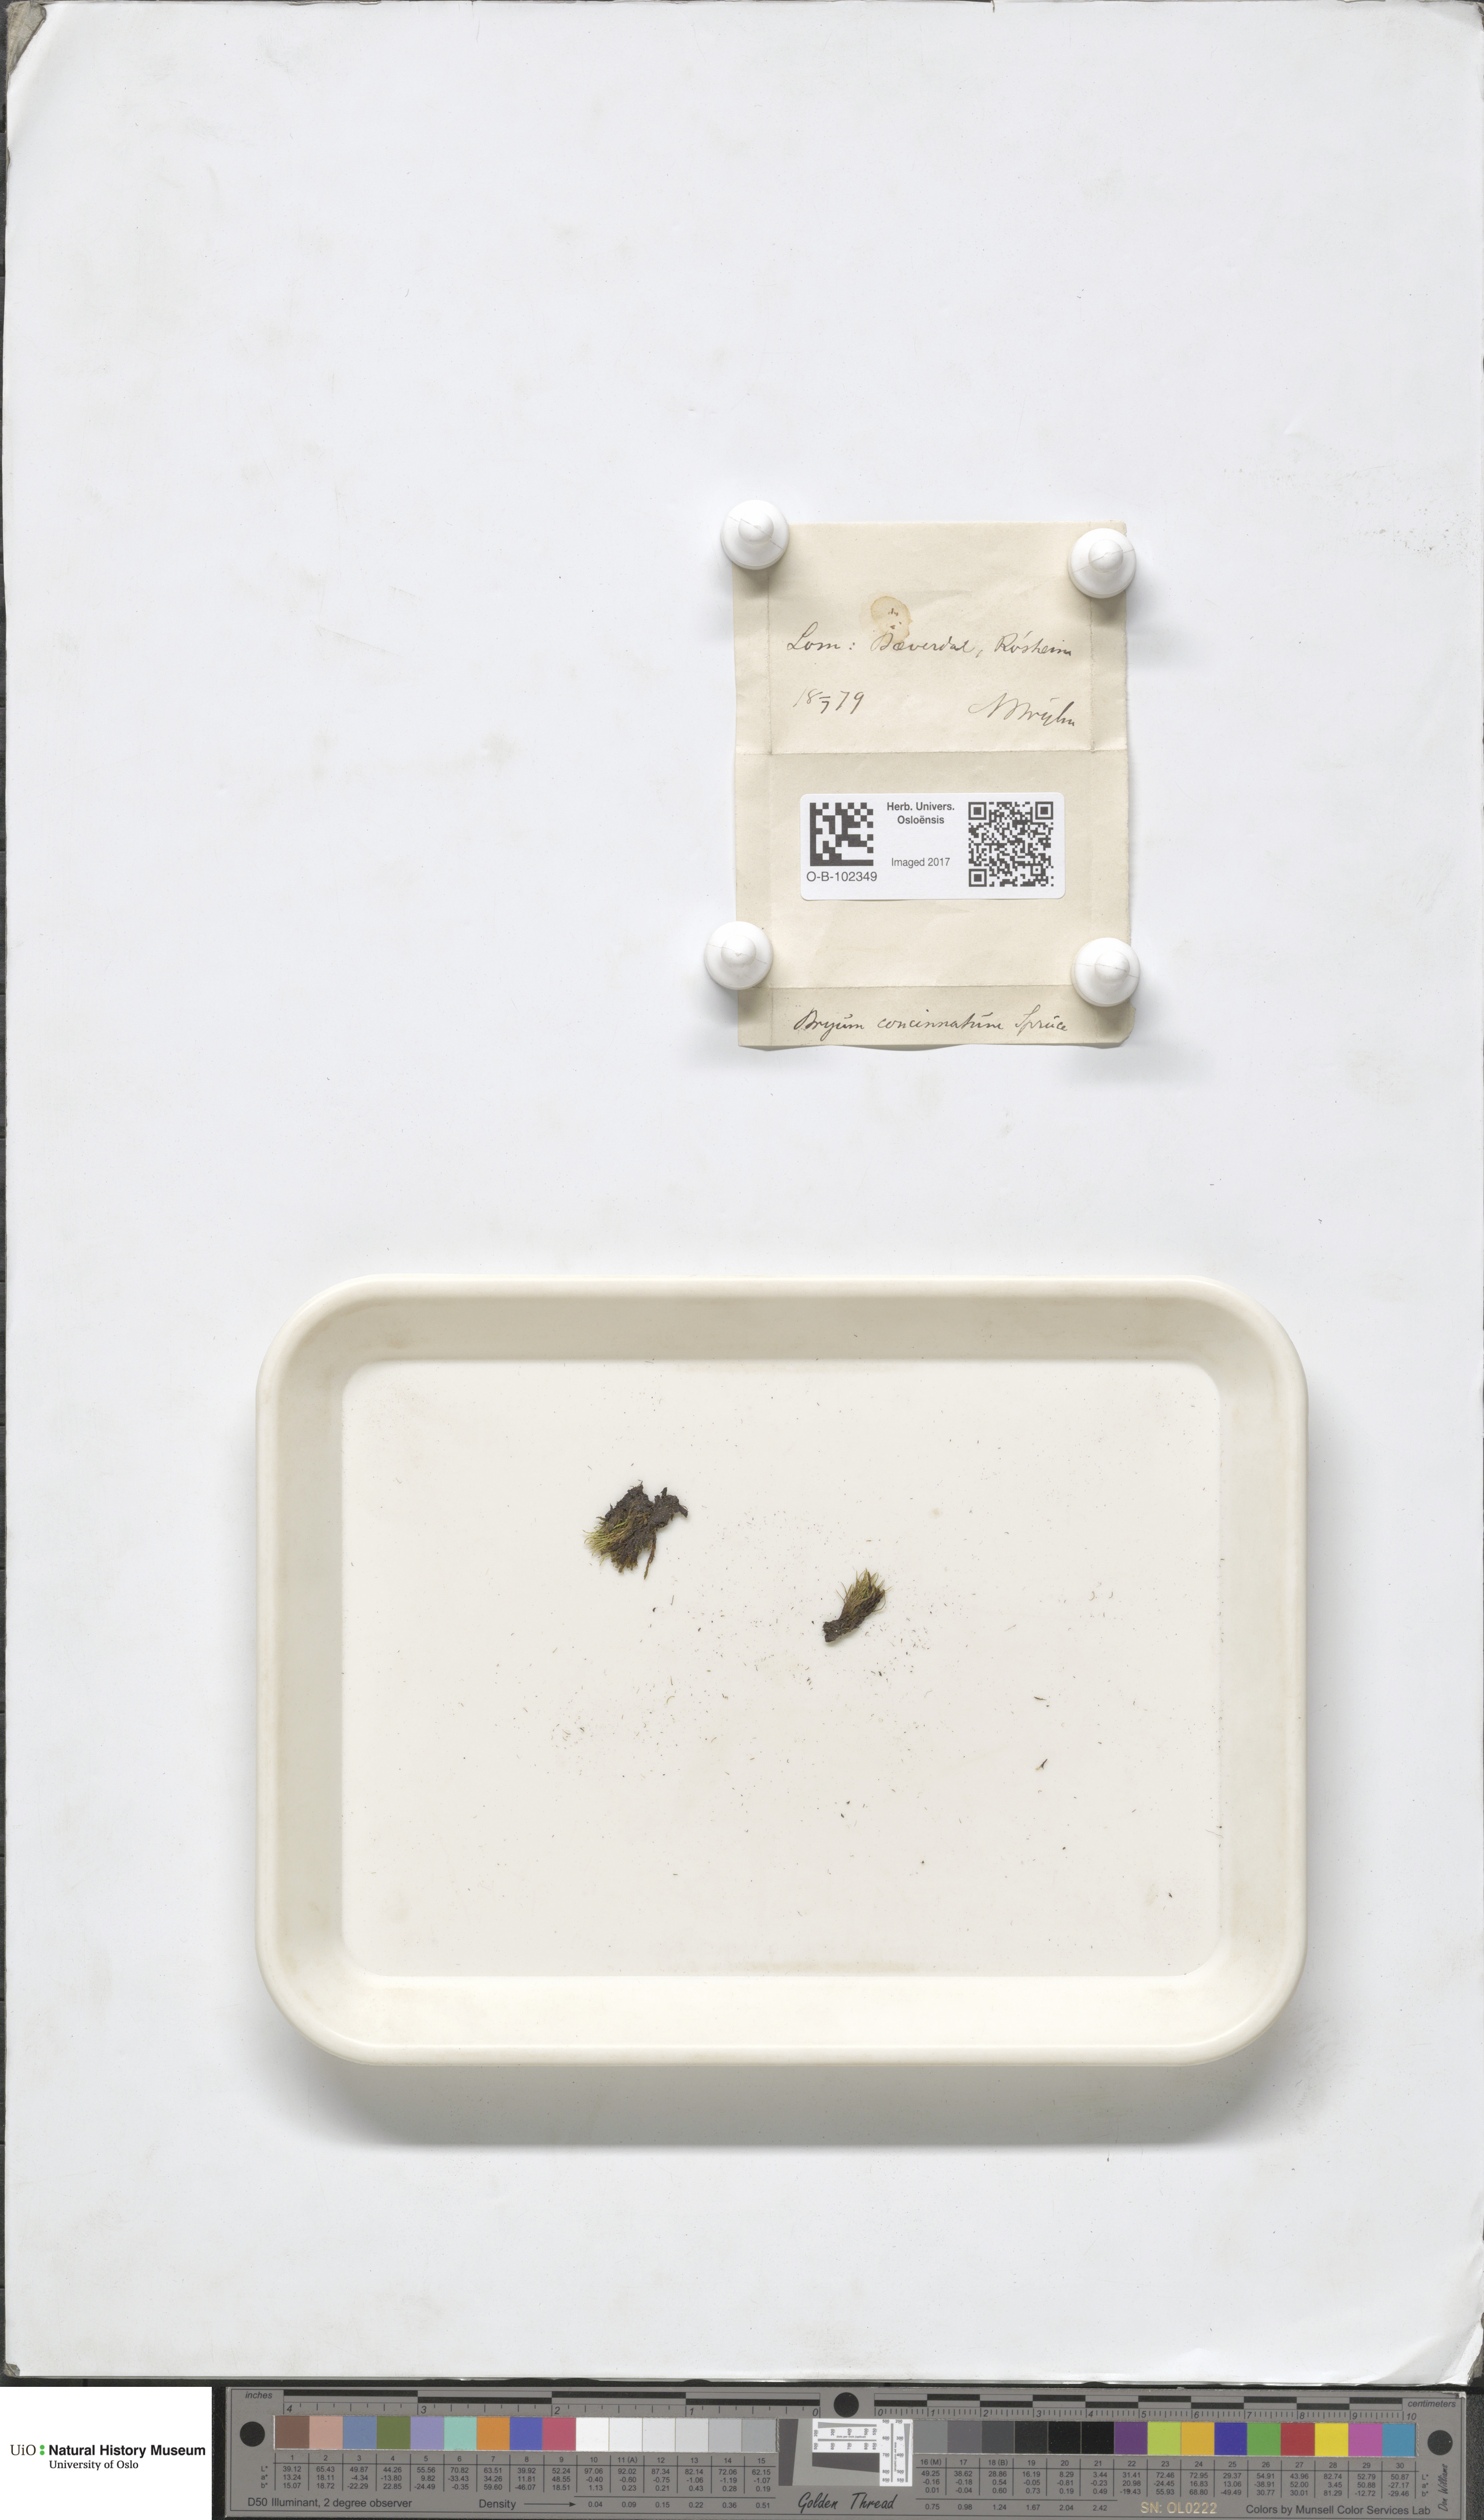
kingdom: Plantae
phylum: Bryophyta
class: Bryopsida
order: Bryales
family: Bryaceae
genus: Anomobryum
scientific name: Anomobryum julaceum
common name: Slender silver moss
